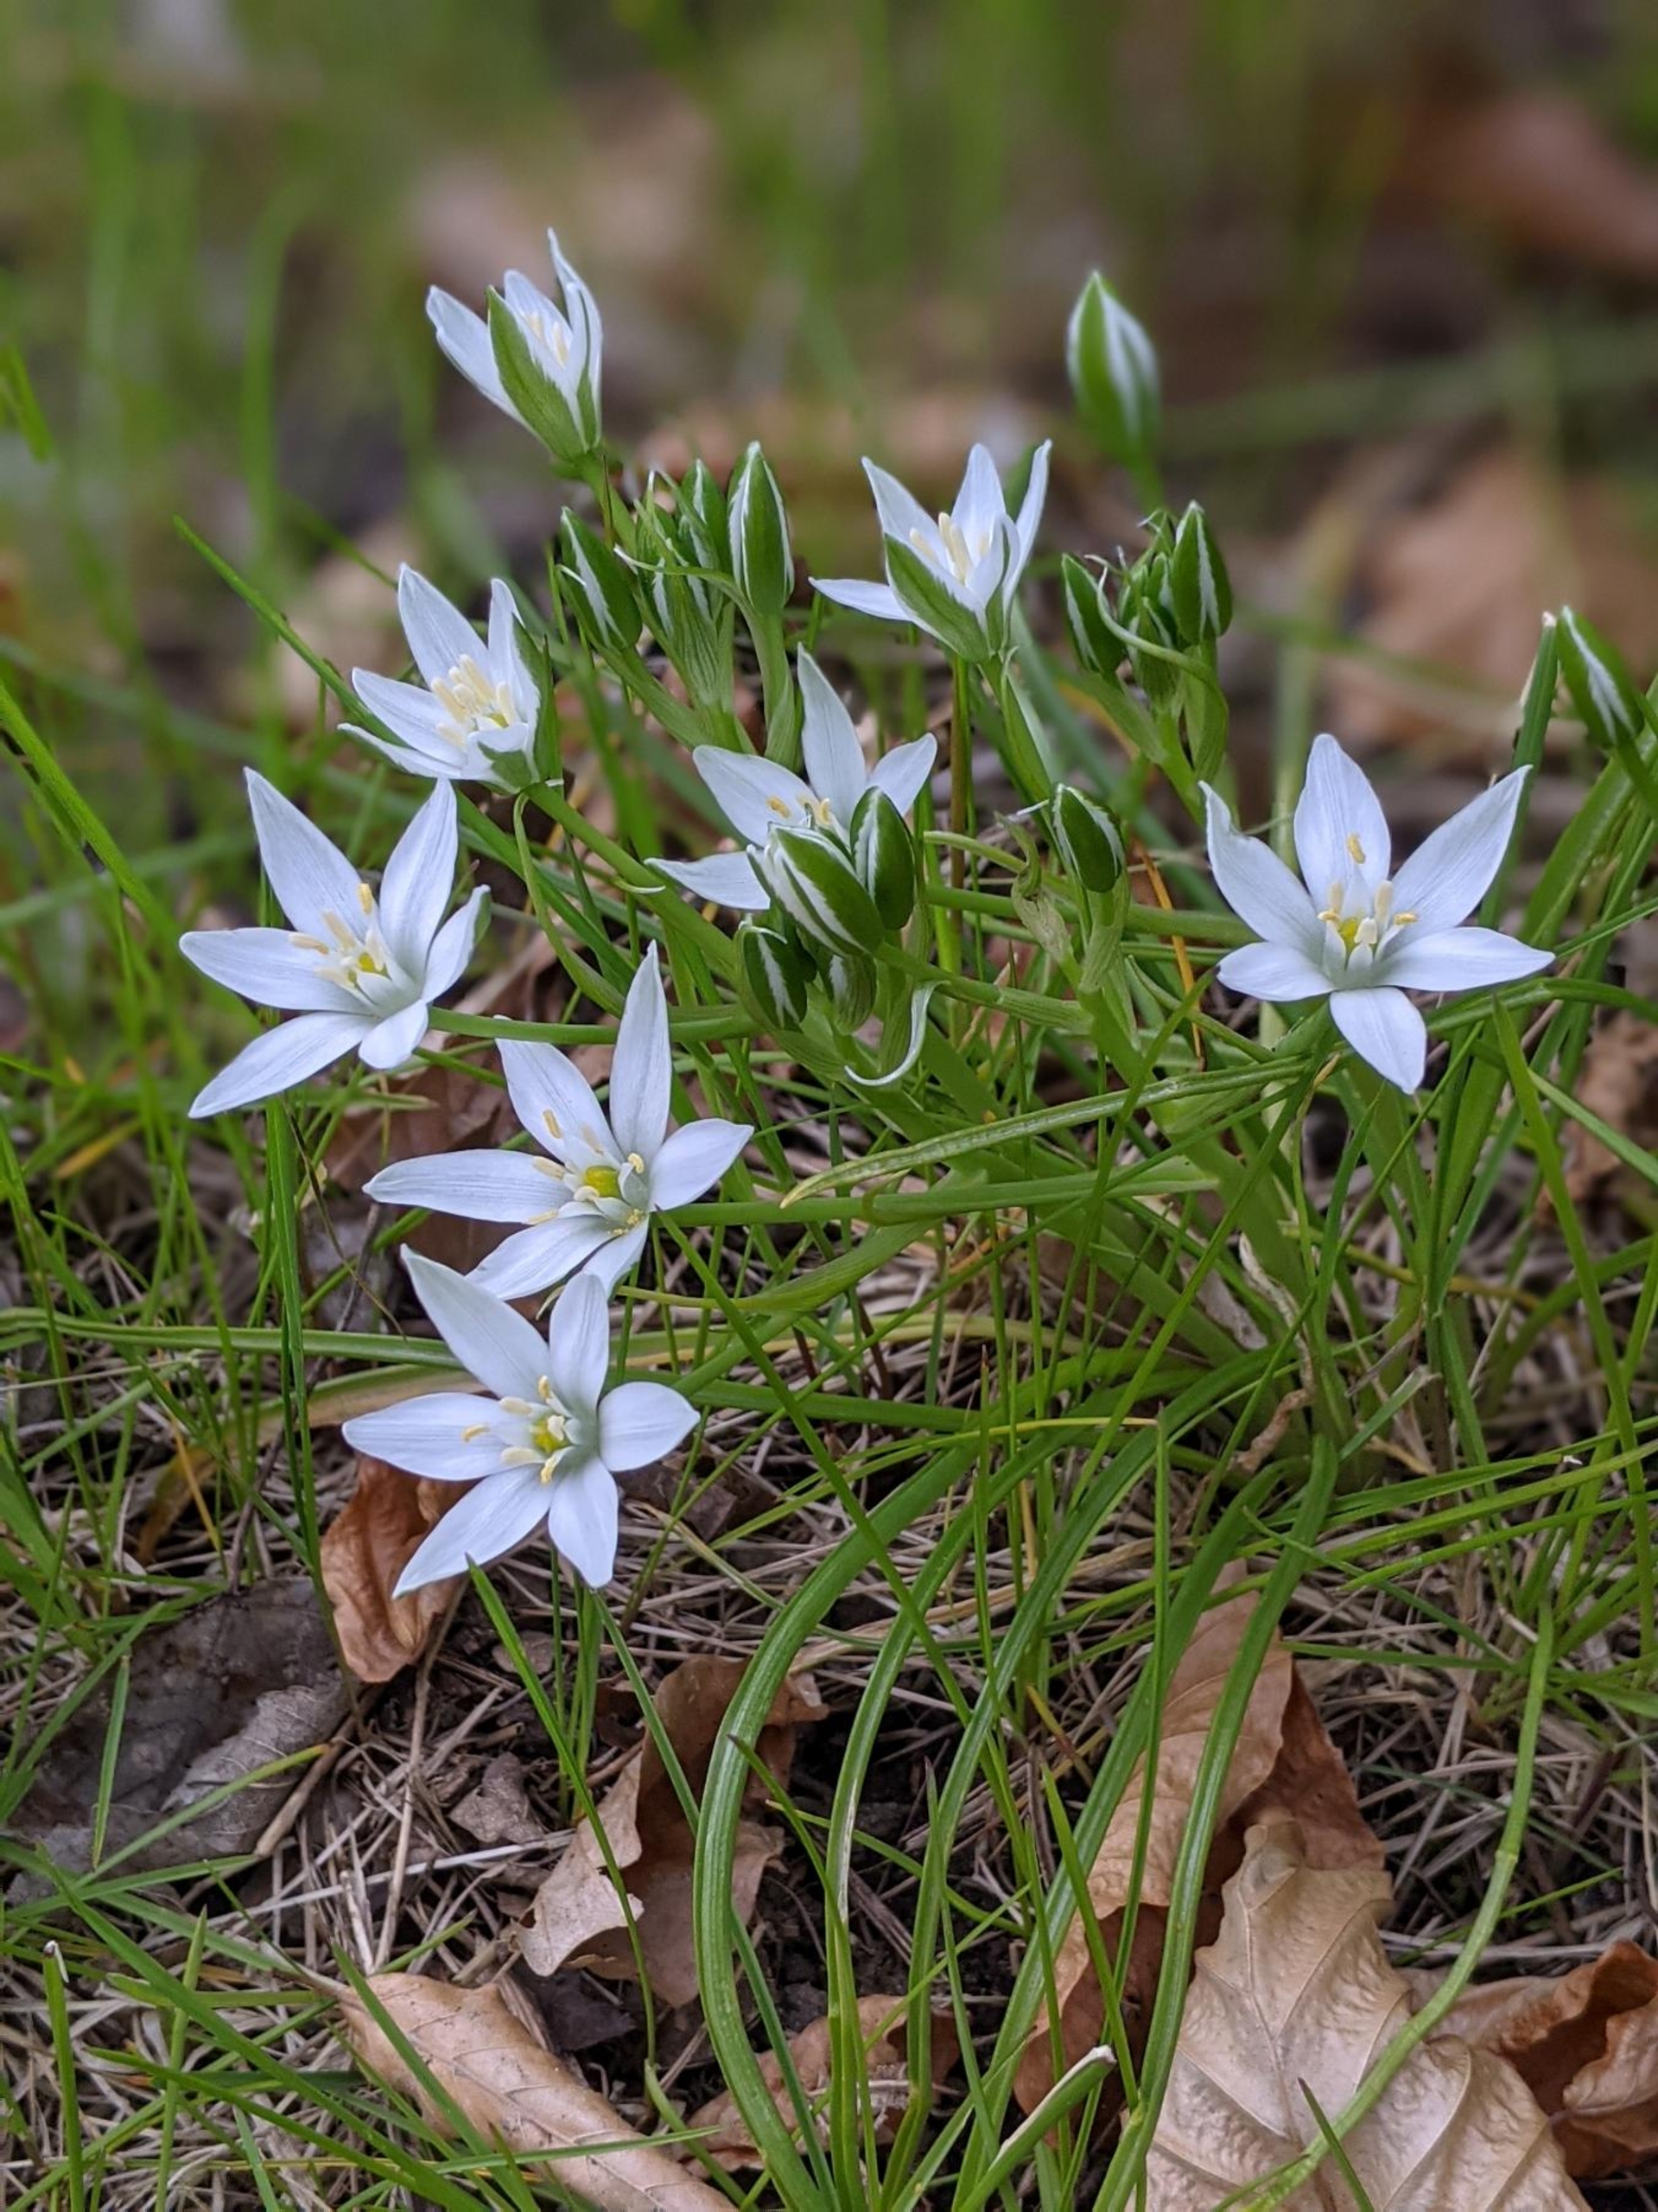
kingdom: Plantae
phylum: Tracheophyta
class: Liliopsida
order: Asparagales
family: Asparagaceae
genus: Ornithogalum
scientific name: Ornithogalum umbellatum
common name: Kost-fuglemælk
